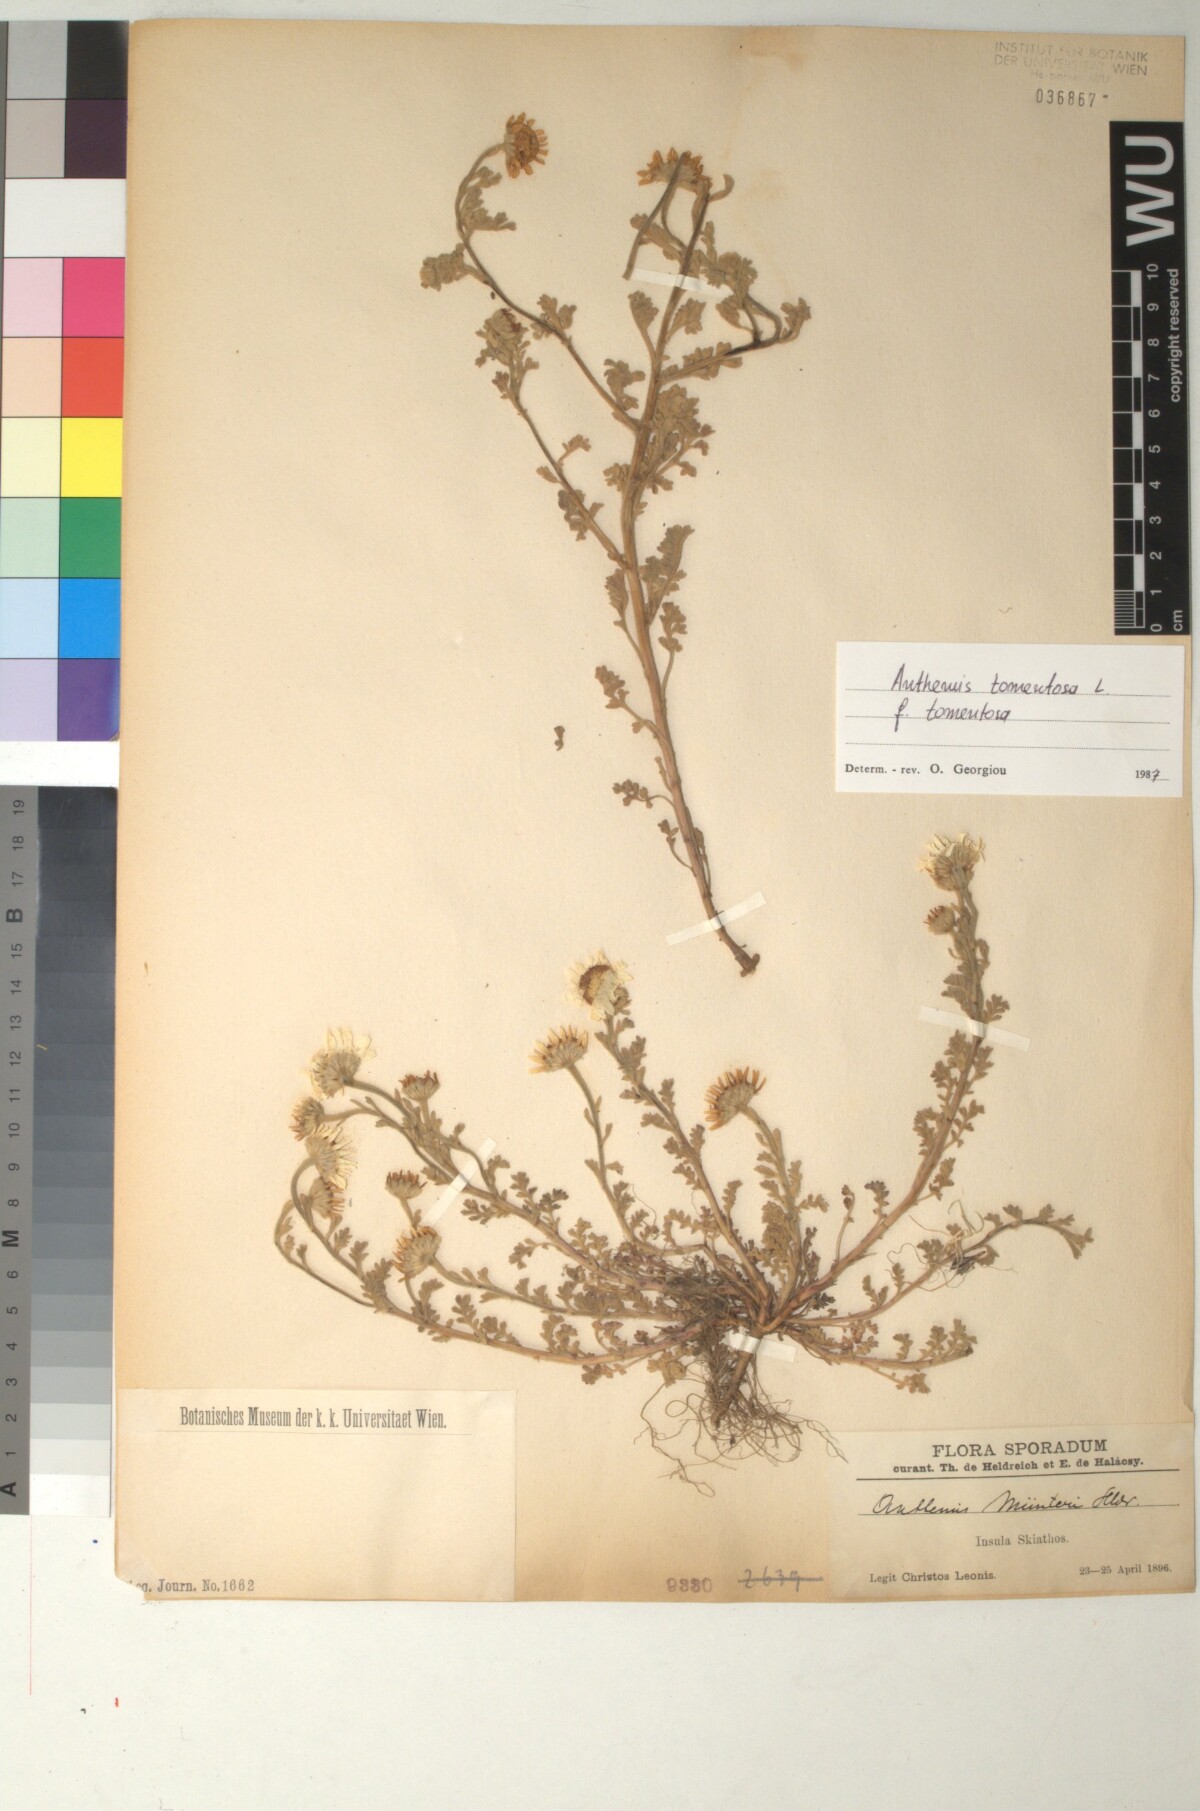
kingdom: Plantae
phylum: Tracheophyta
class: Magnoliopsida
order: Asterales
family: Asteraceae
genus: Anthemis
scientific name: Anthemis tomentosa
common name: Woolly chamomile
